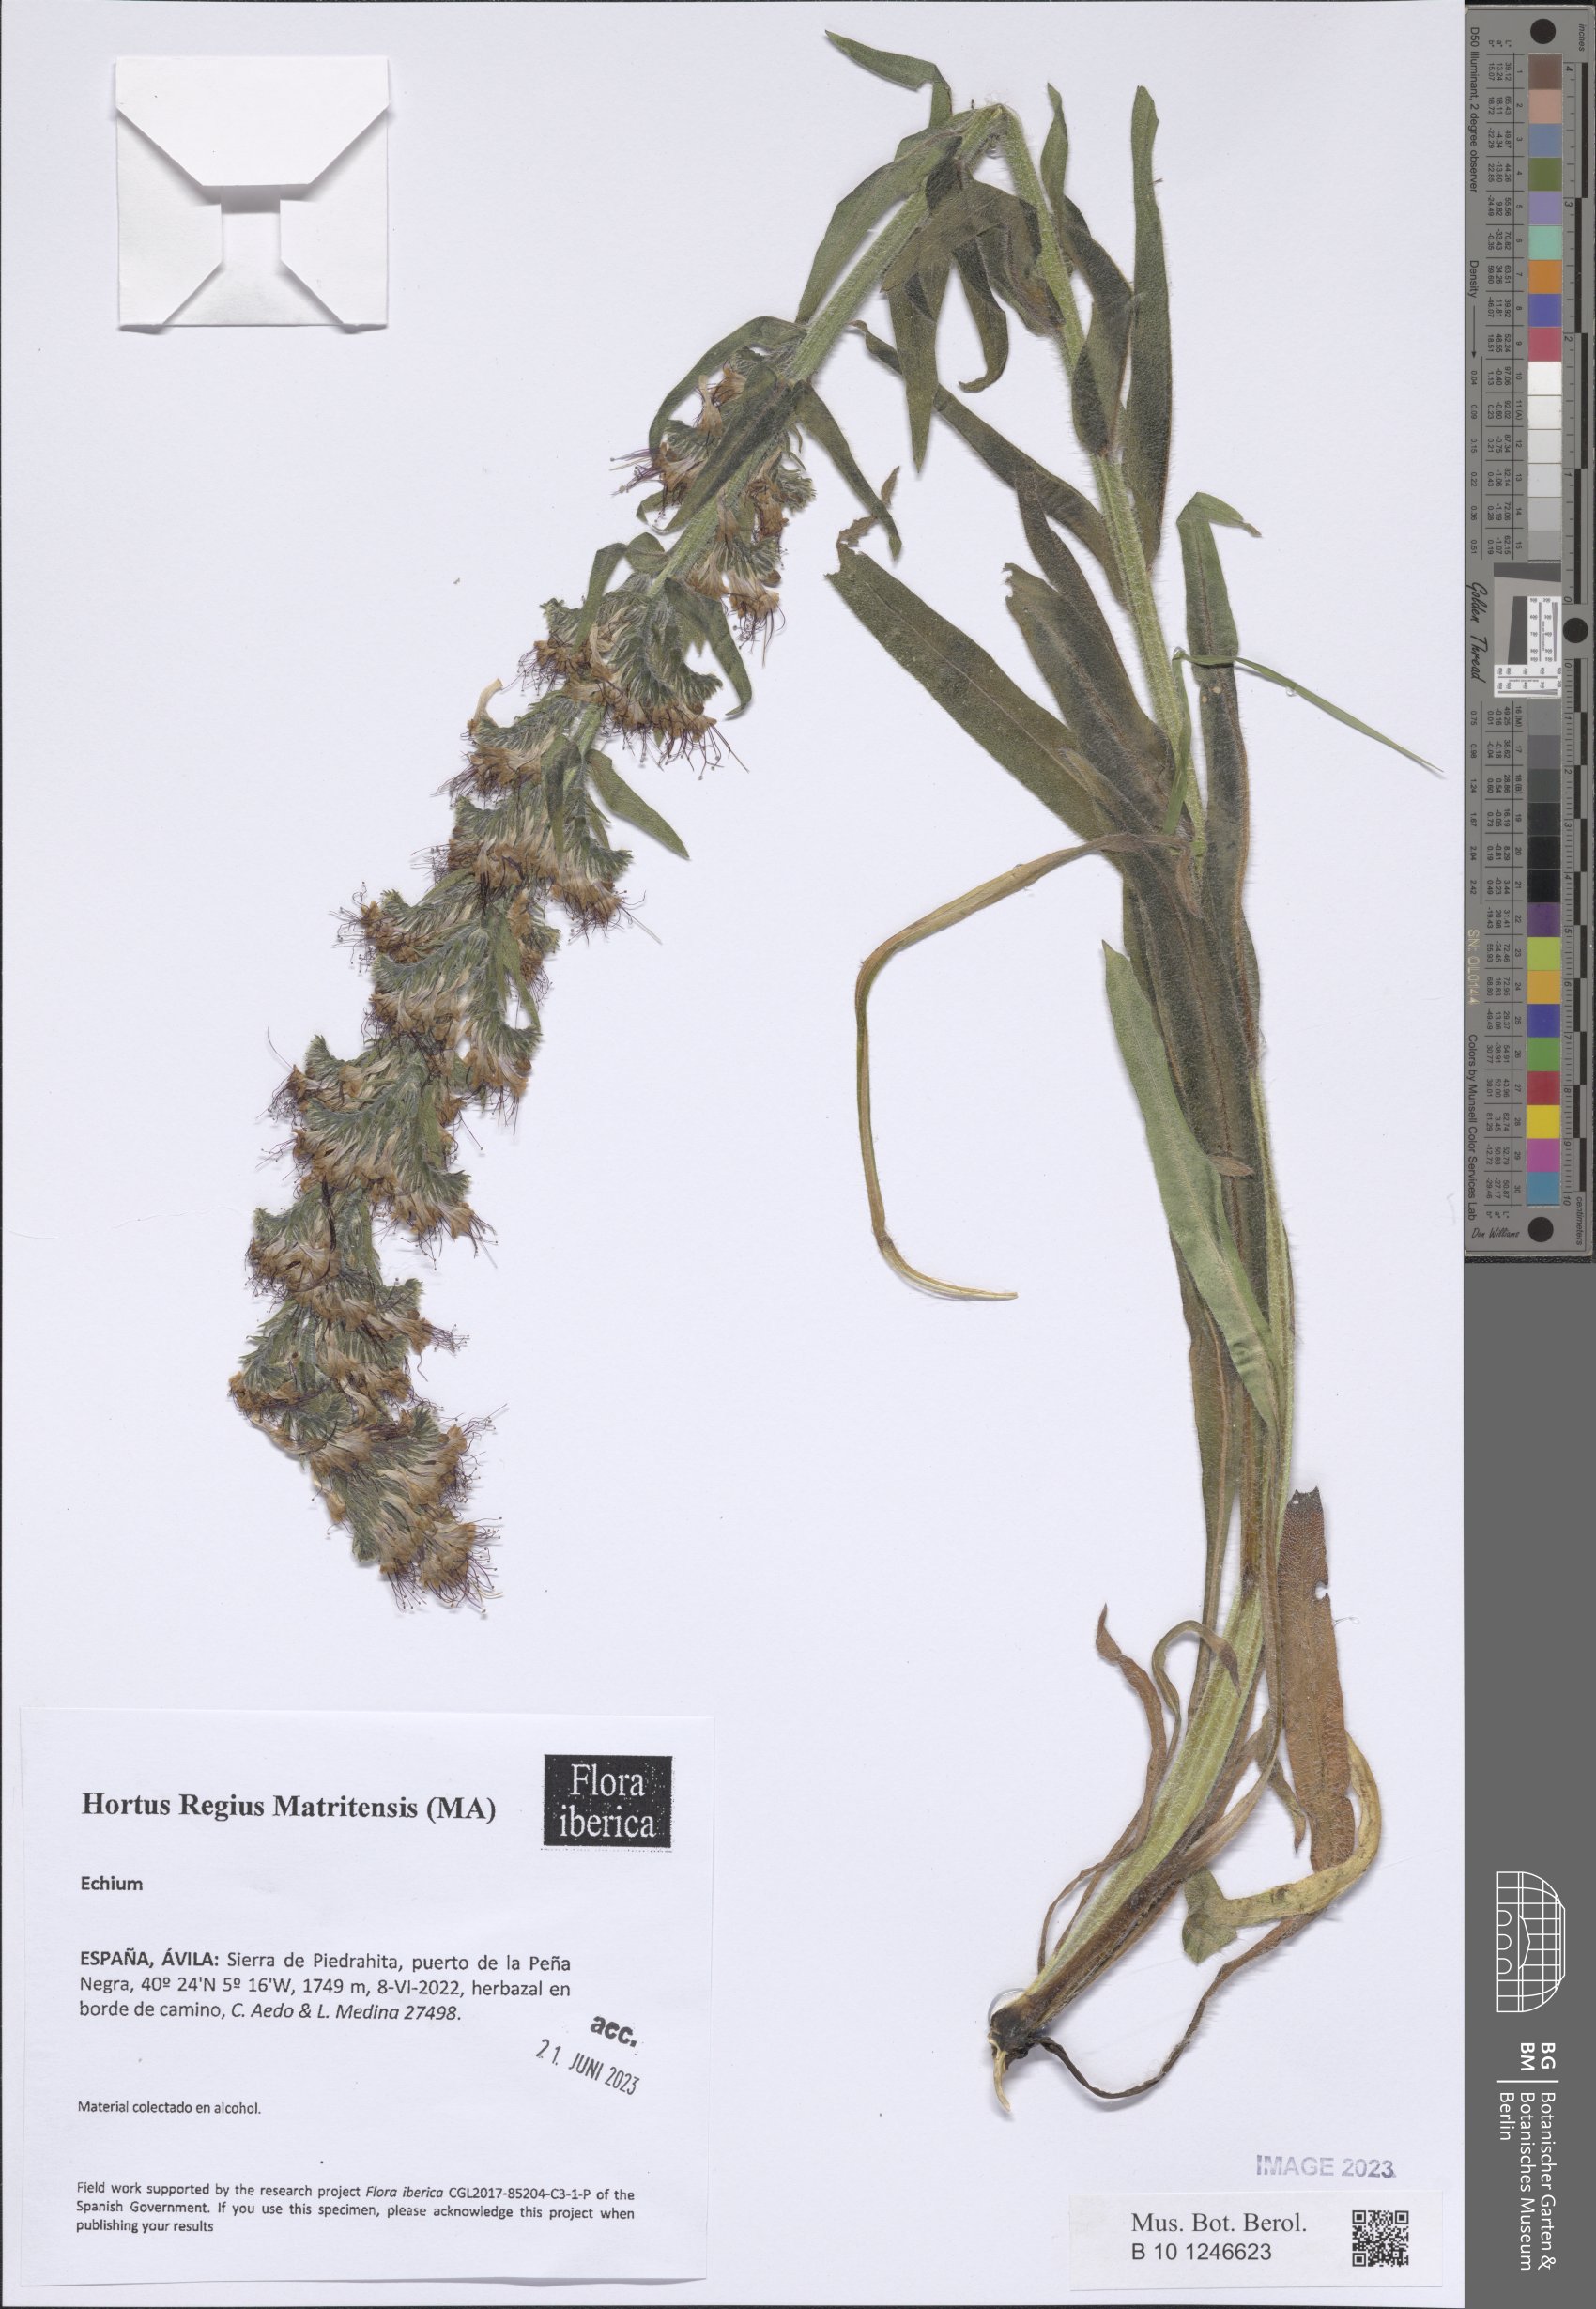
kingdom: Plantae
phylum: Tracheophyta
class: Magnoliopsida
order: Boraginales
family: Boraginaceae
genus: Echium
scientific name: Echium
